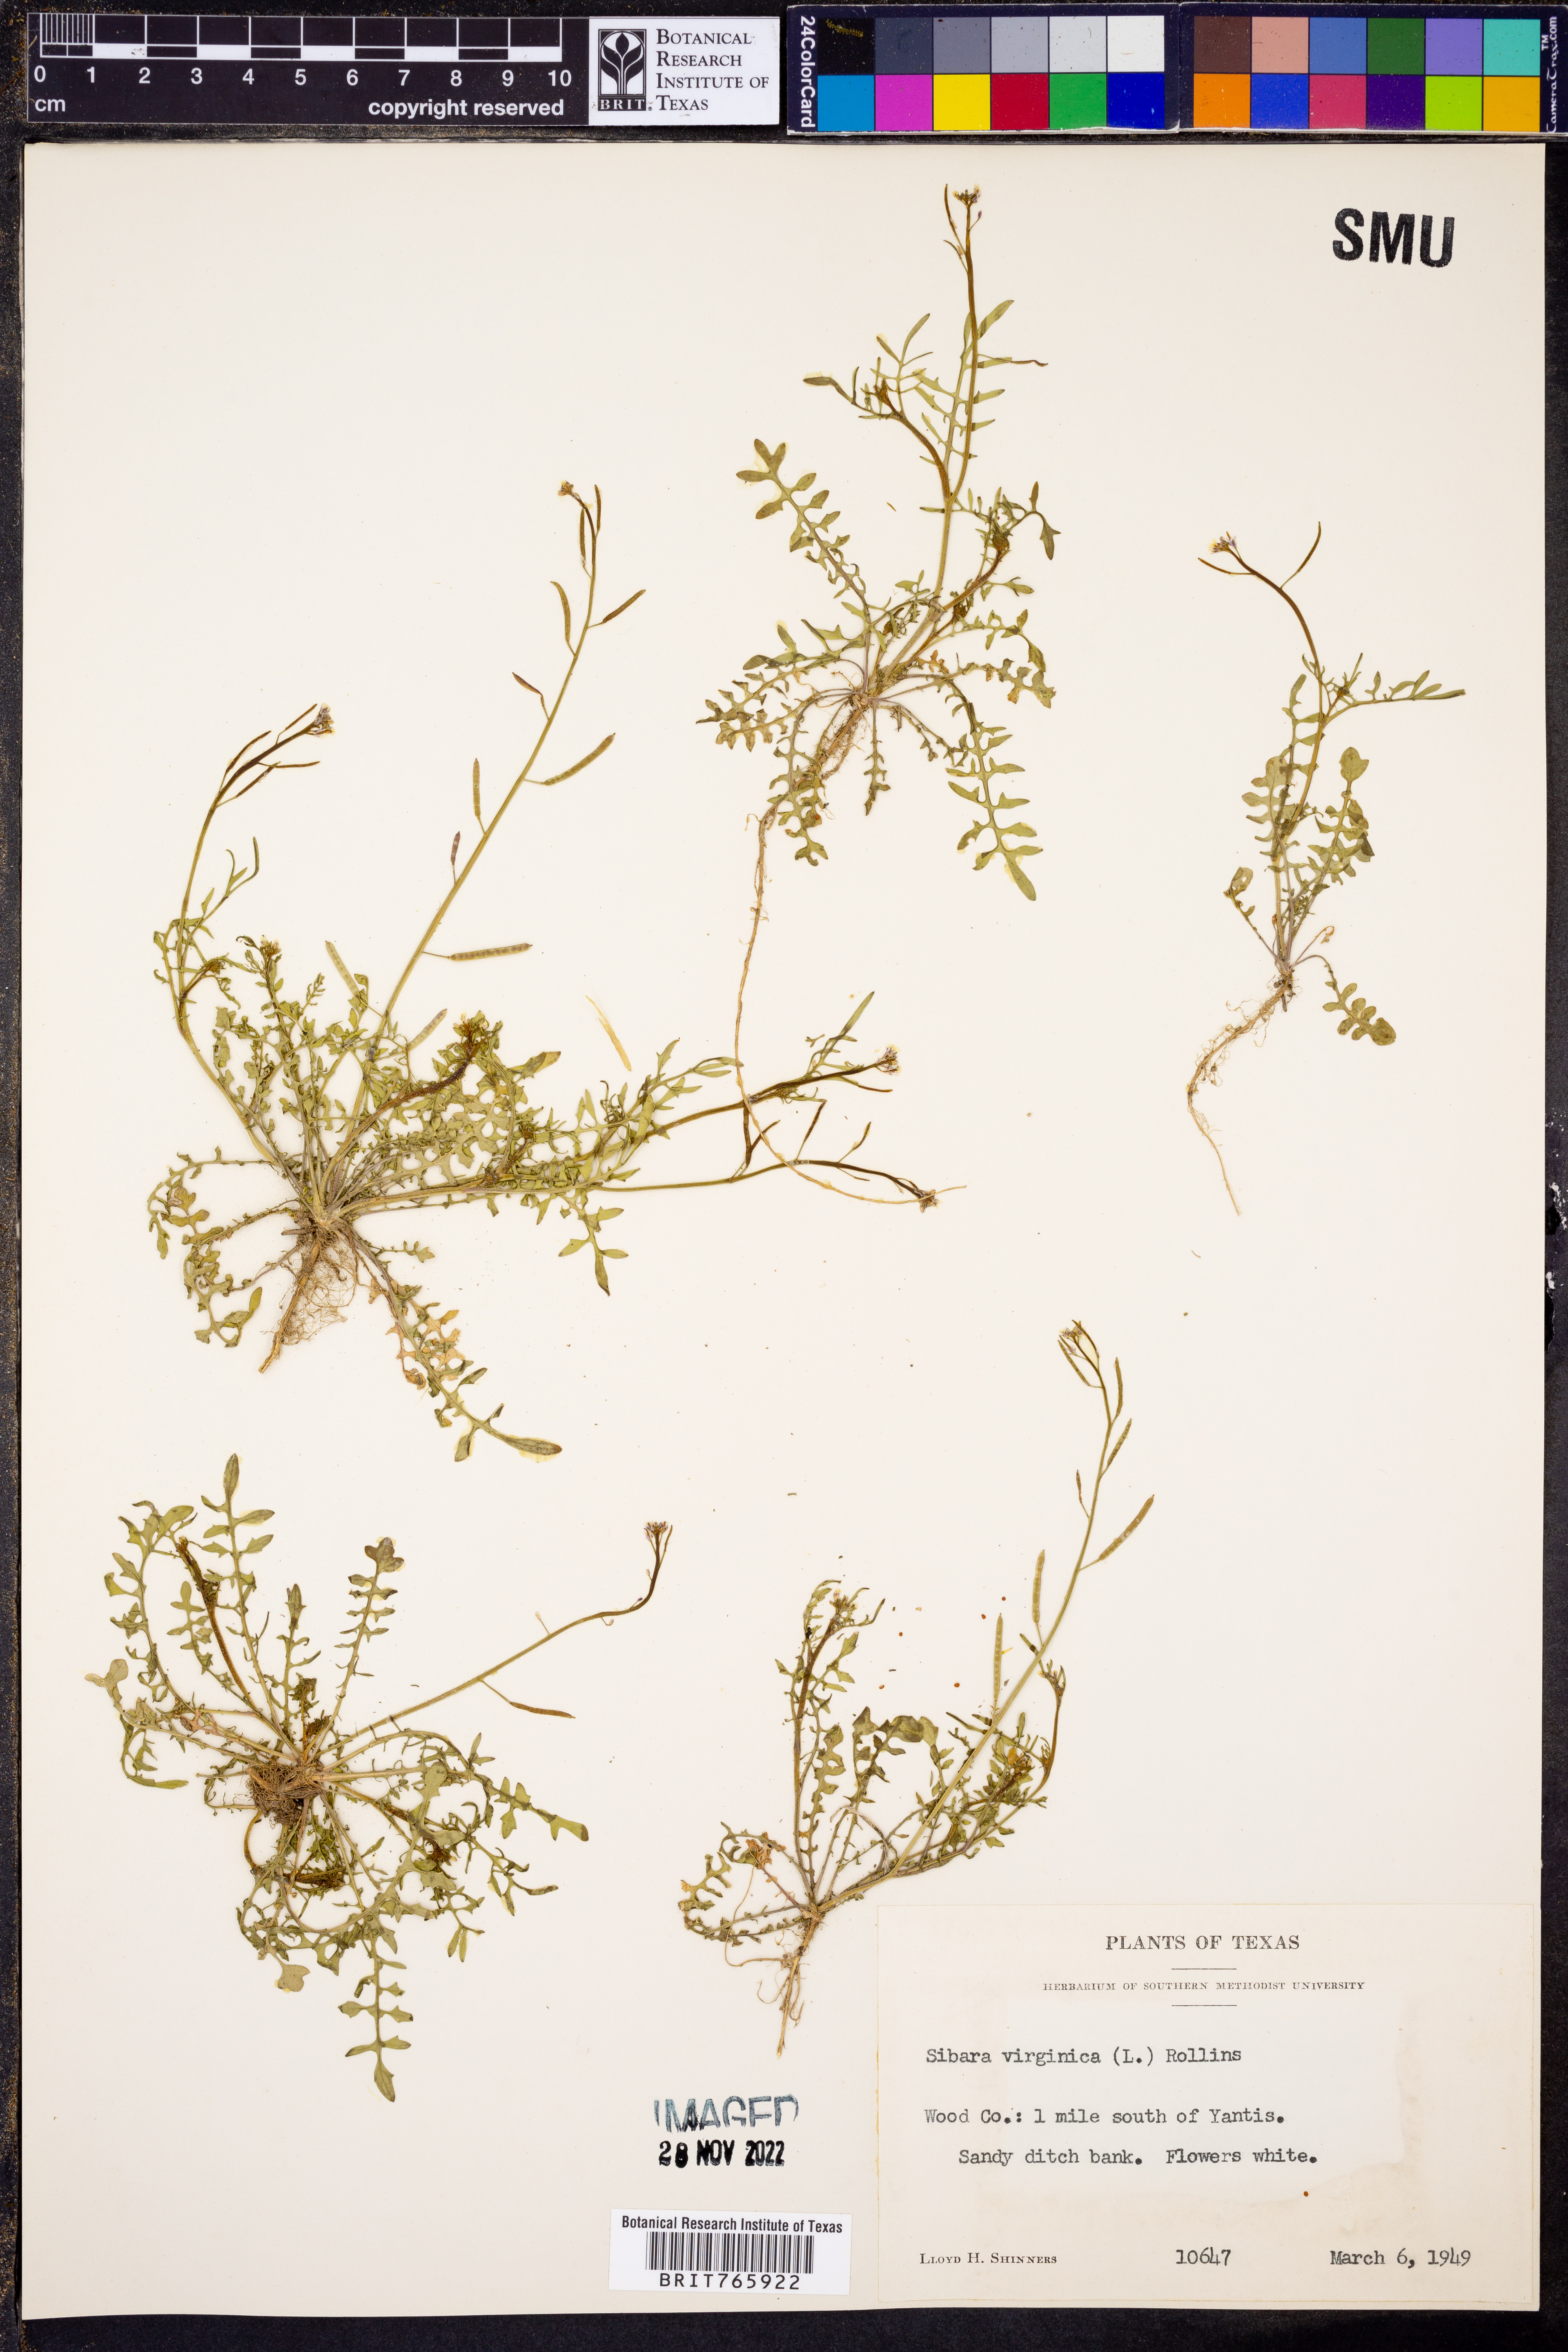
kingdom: Plantae
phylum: Tracheophyta
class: Magnoliopsida
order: Brassicales
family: Brassicaceae
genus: Planodes
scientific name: Planodes virginicum
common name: Virginia cress
